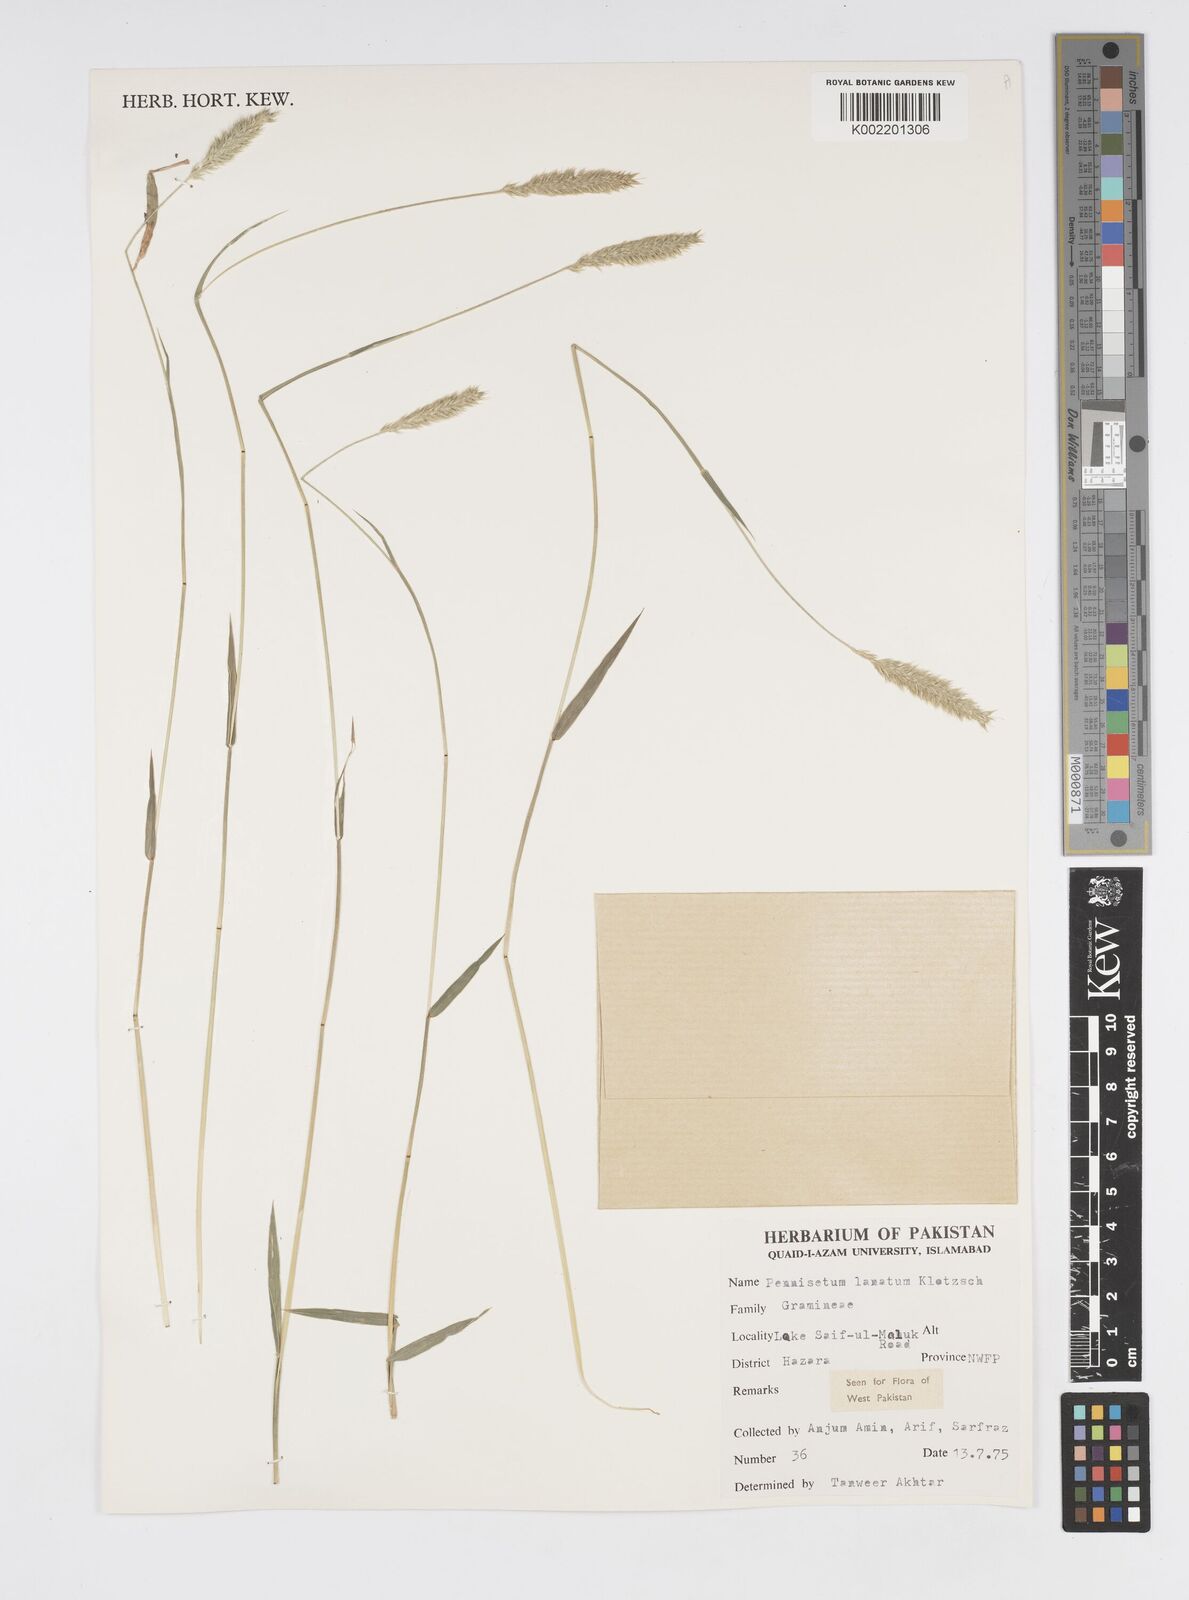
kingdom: Plantae
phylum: Tracheophyta
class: Liliopsida
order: Poales
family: Poaceae
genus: Cenchrus
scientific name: Cenchrus lanatus
